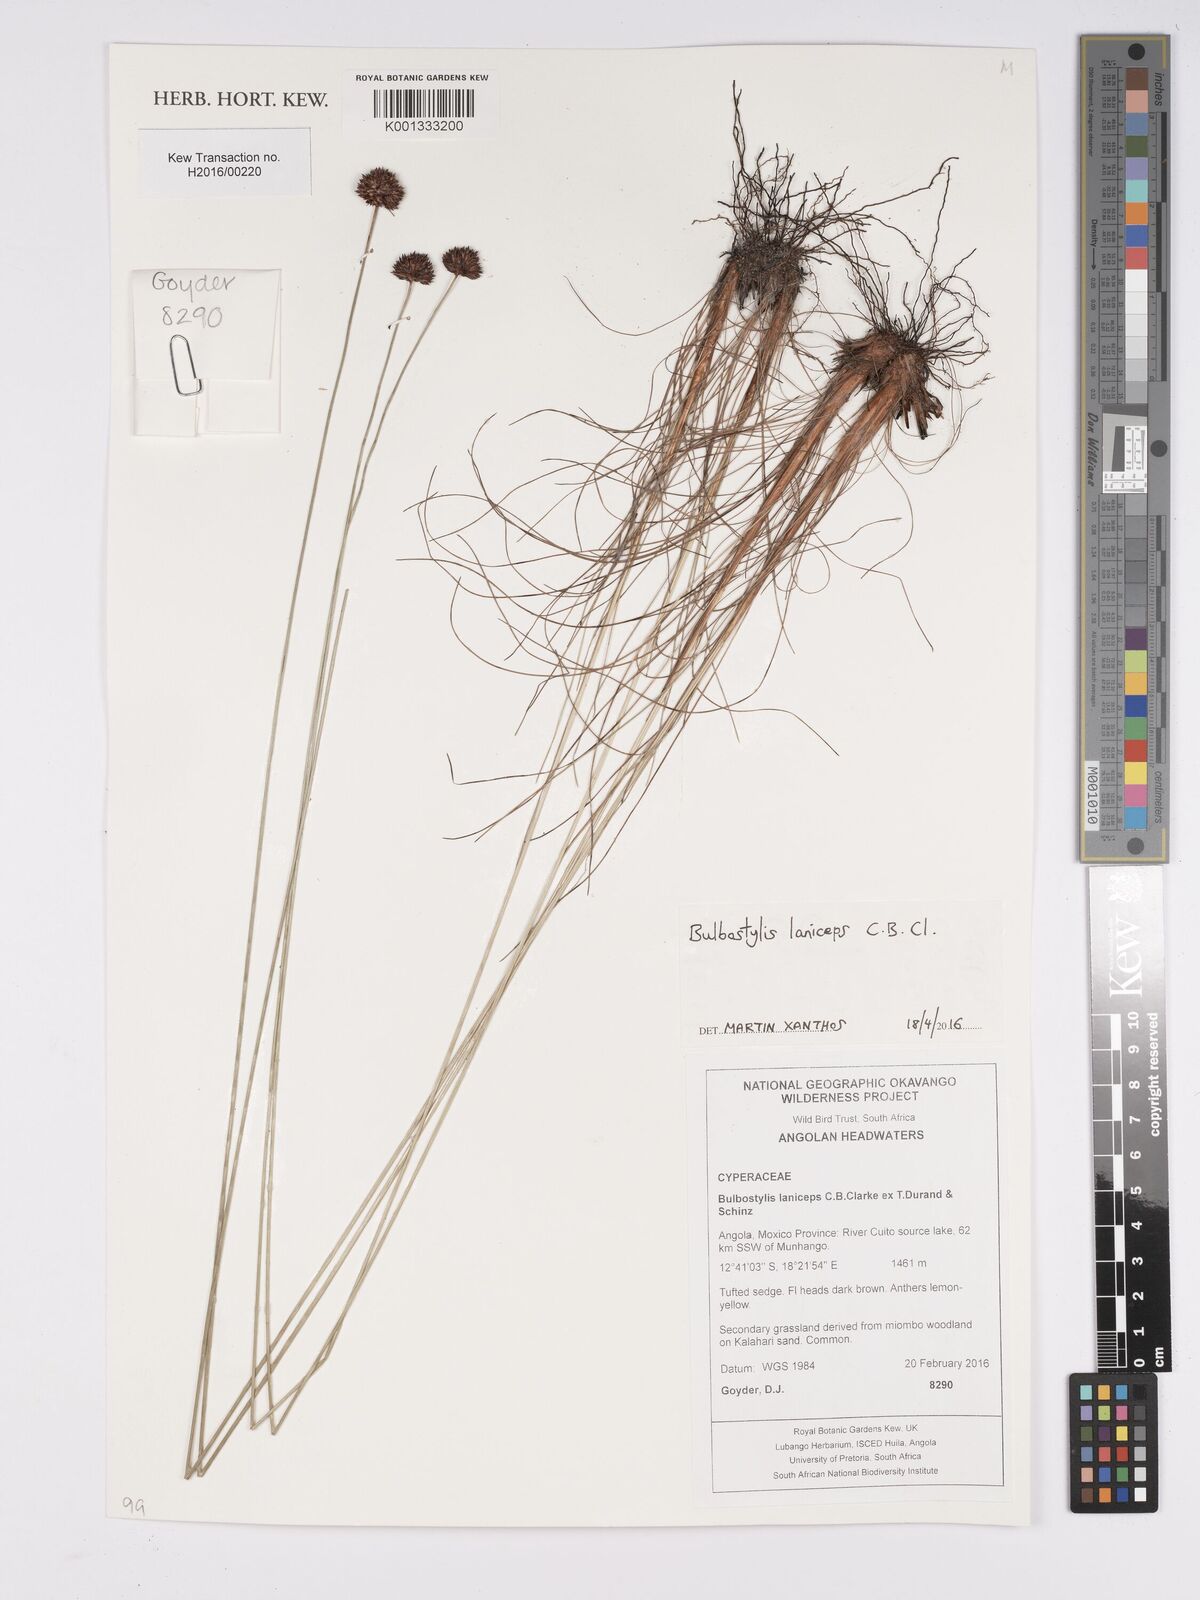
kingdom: Plantae
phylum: Tracheophyta
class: Liliopsida
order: Poales
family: Cyperaceae
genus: Bulbostylis
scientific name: Bulbostylis laniceps
